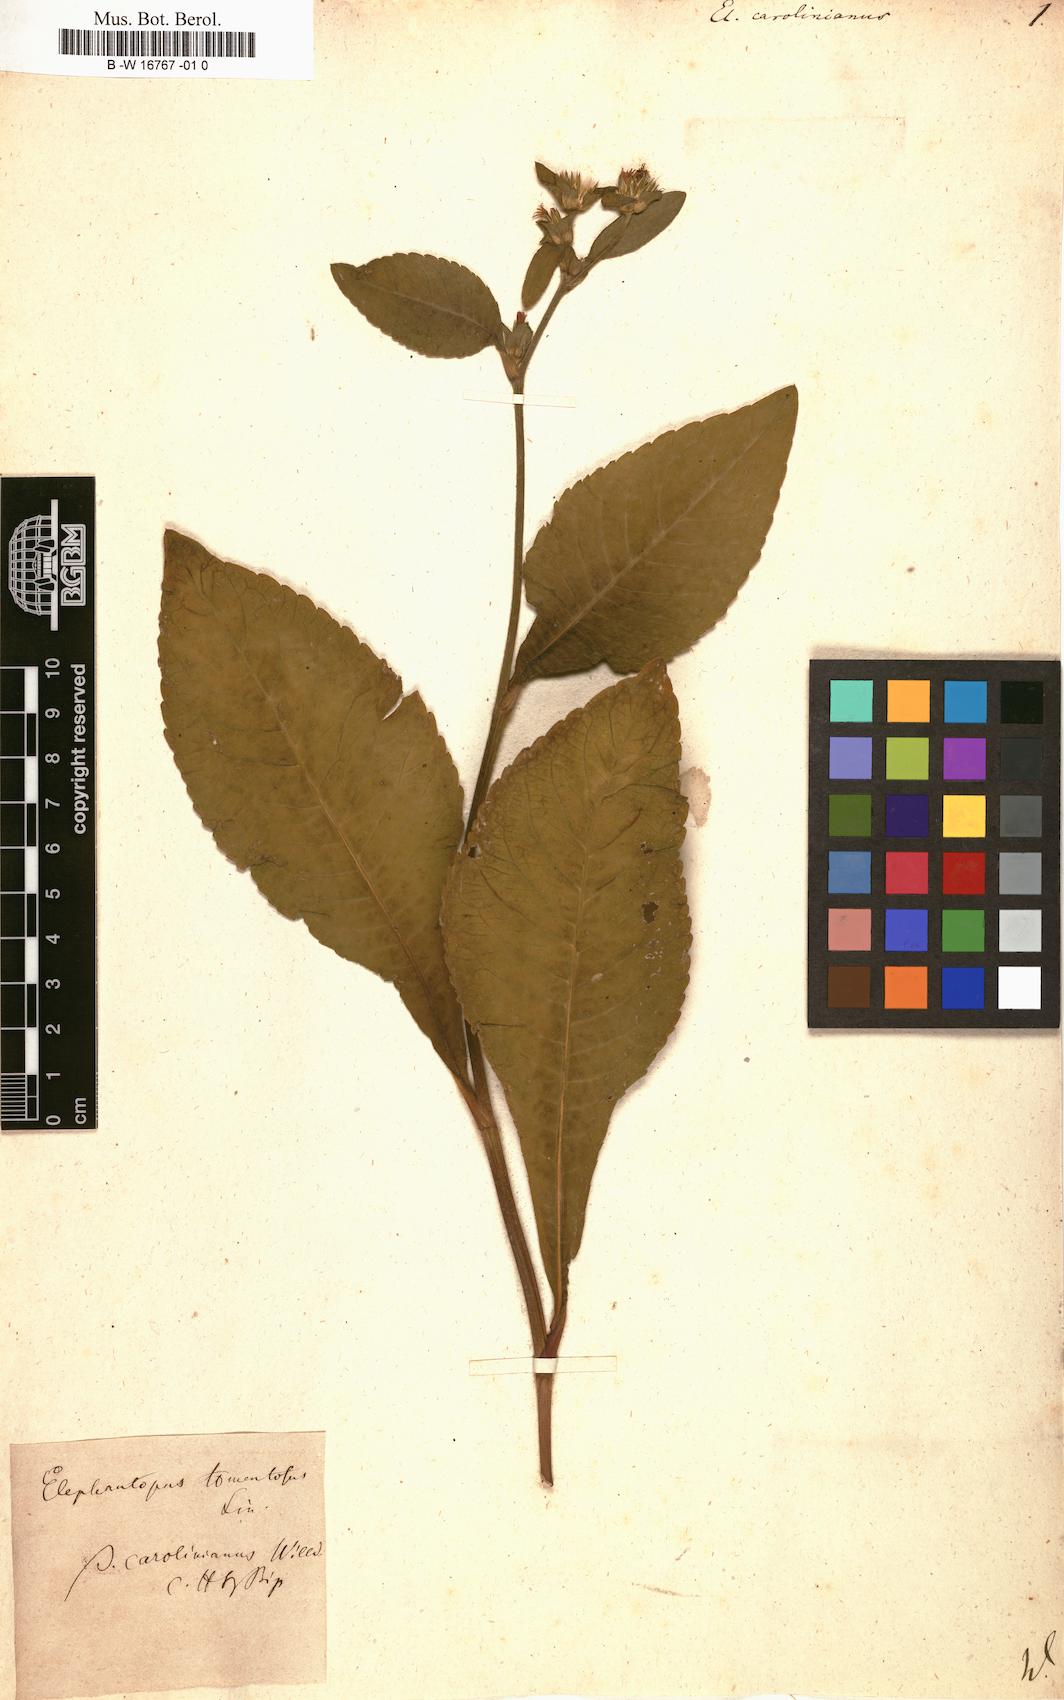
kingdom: Plantae
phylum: Tracheophyta
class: Magnoliopsida
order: Asterales
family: Asteraceae
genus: Elephantopus
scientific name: Elephantopus mollis
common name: Soft elephantsfoot
